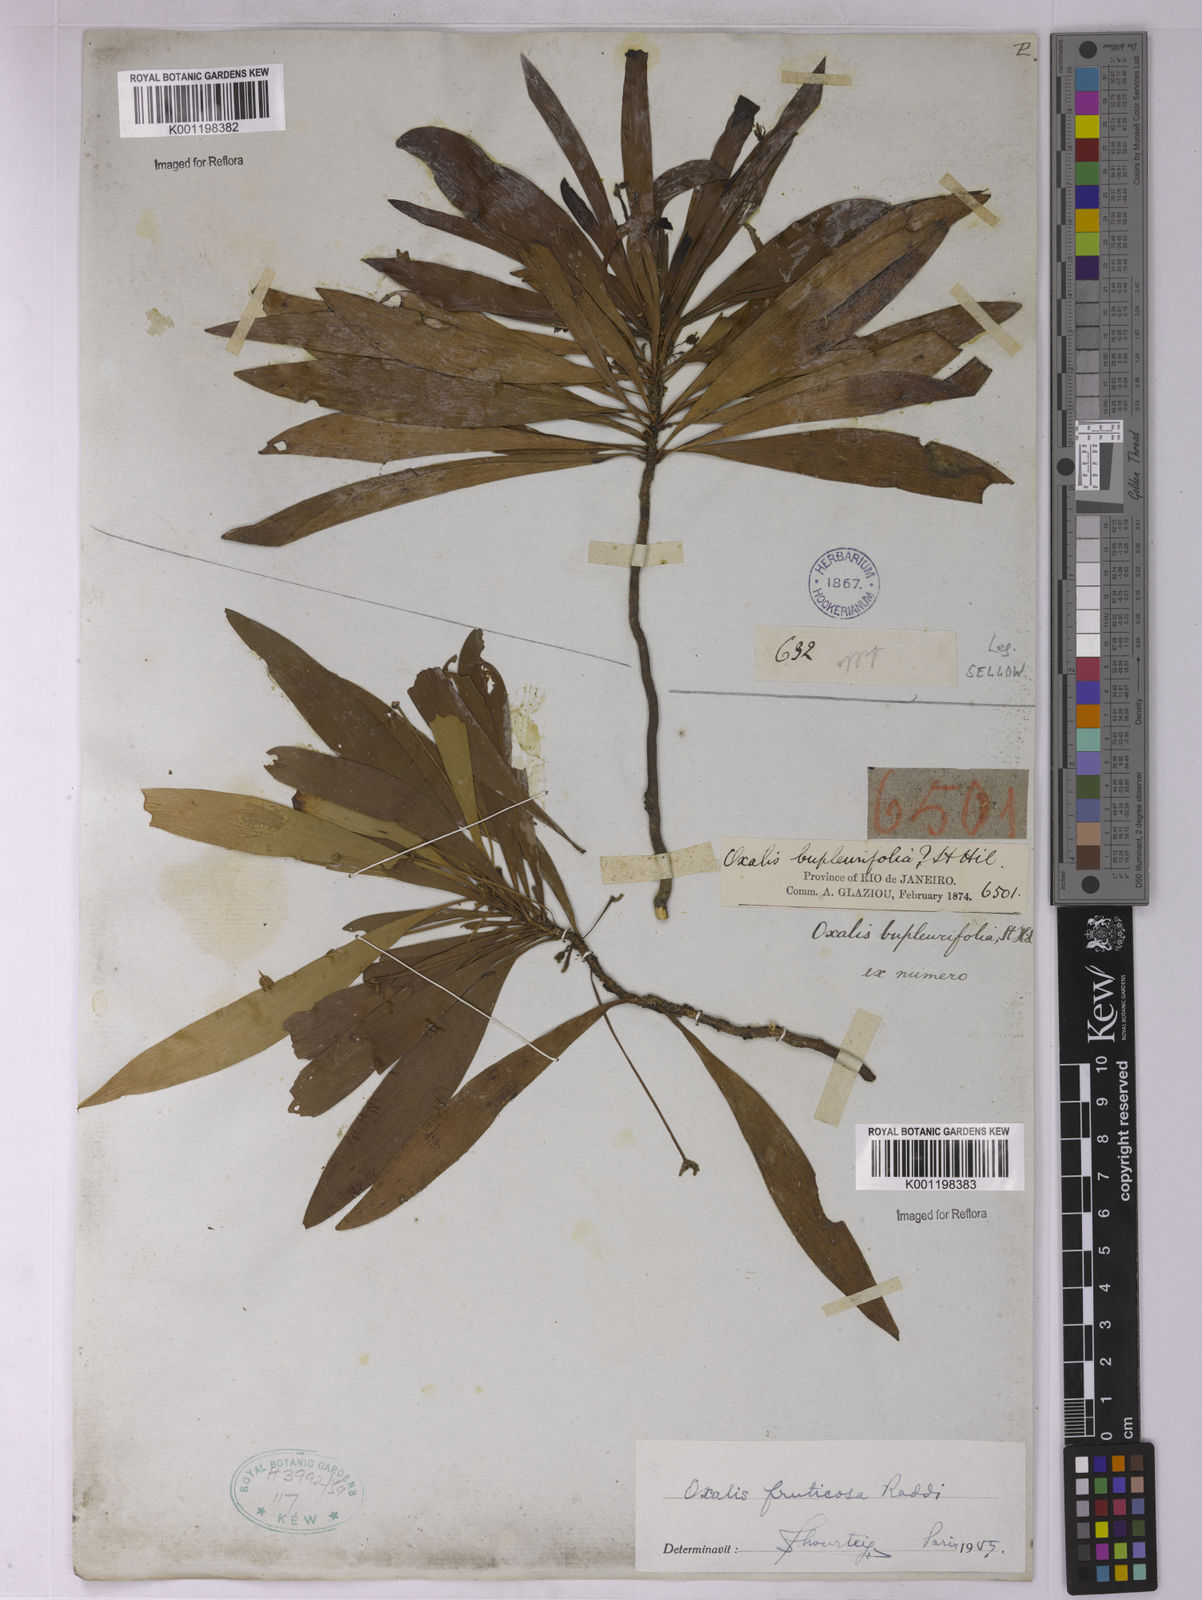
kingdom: Plantae
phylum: Tracheophyta
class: Magnoliopsida
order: Oxalidales
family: Oxalidaceae
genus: Oxalis
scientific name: Oxalis fruticosa
